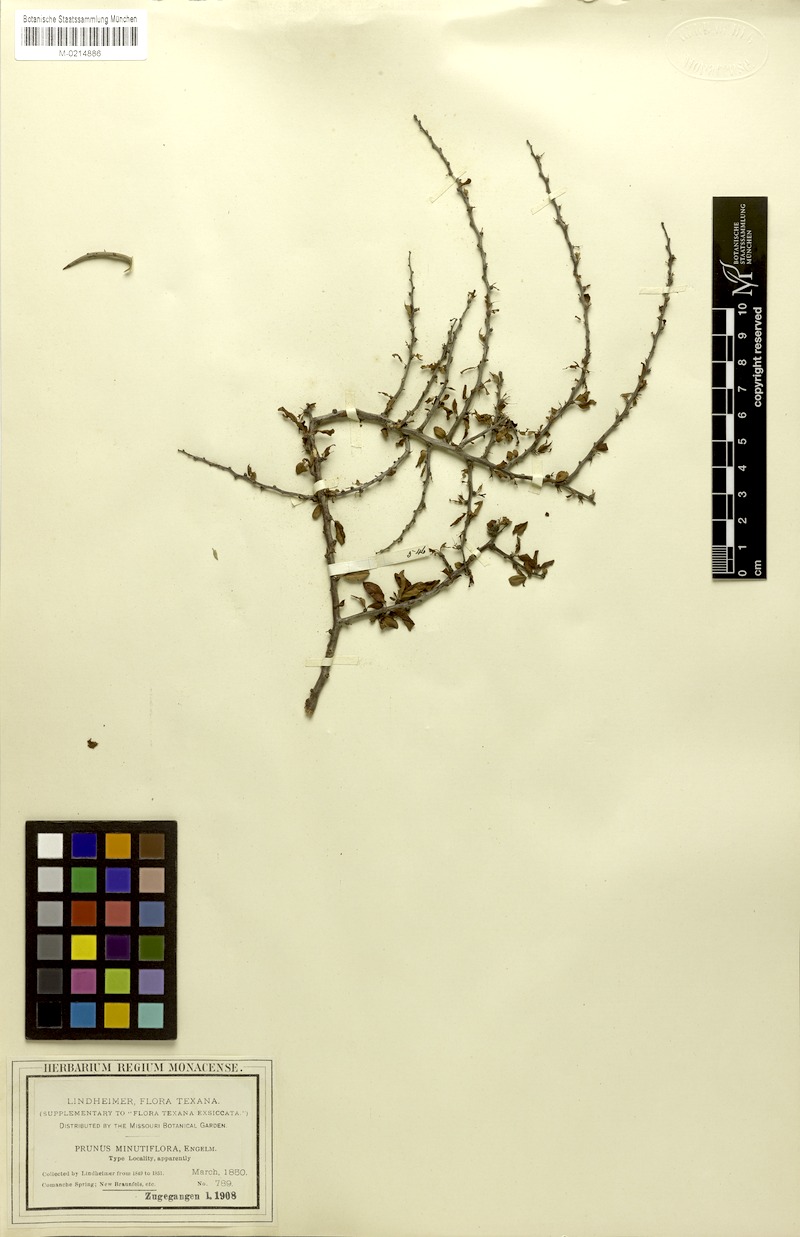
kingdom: Plantae
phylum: Tracheophyta
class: Magnoliopsida
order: Rosales
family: Rosaceae
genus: Prunus
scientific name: Prunus minutiflora
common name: Texas almond
